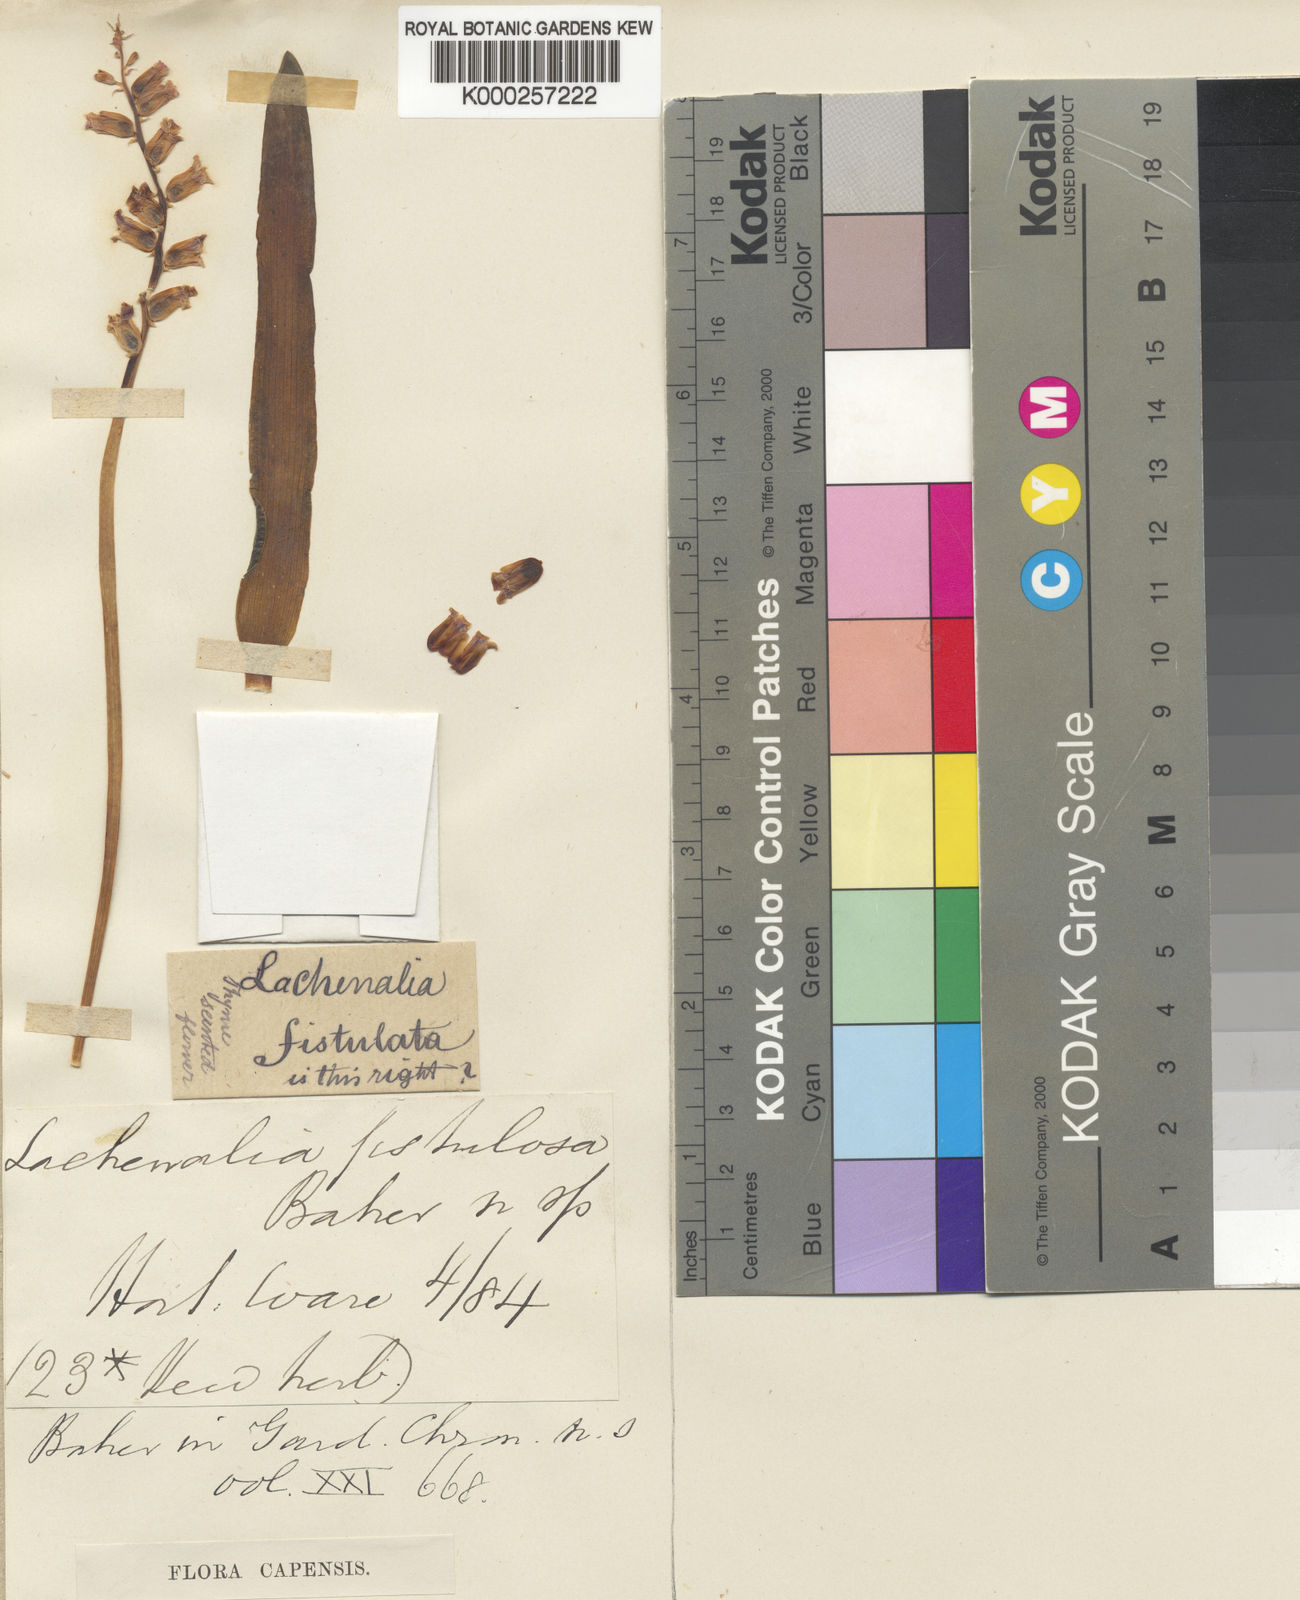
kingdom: Plantae
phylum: Tracheophyta
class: Liliopsida
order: Asparagales
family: Asparagaceae
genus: Lachenalia
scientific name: Lachenalia fistulosa
